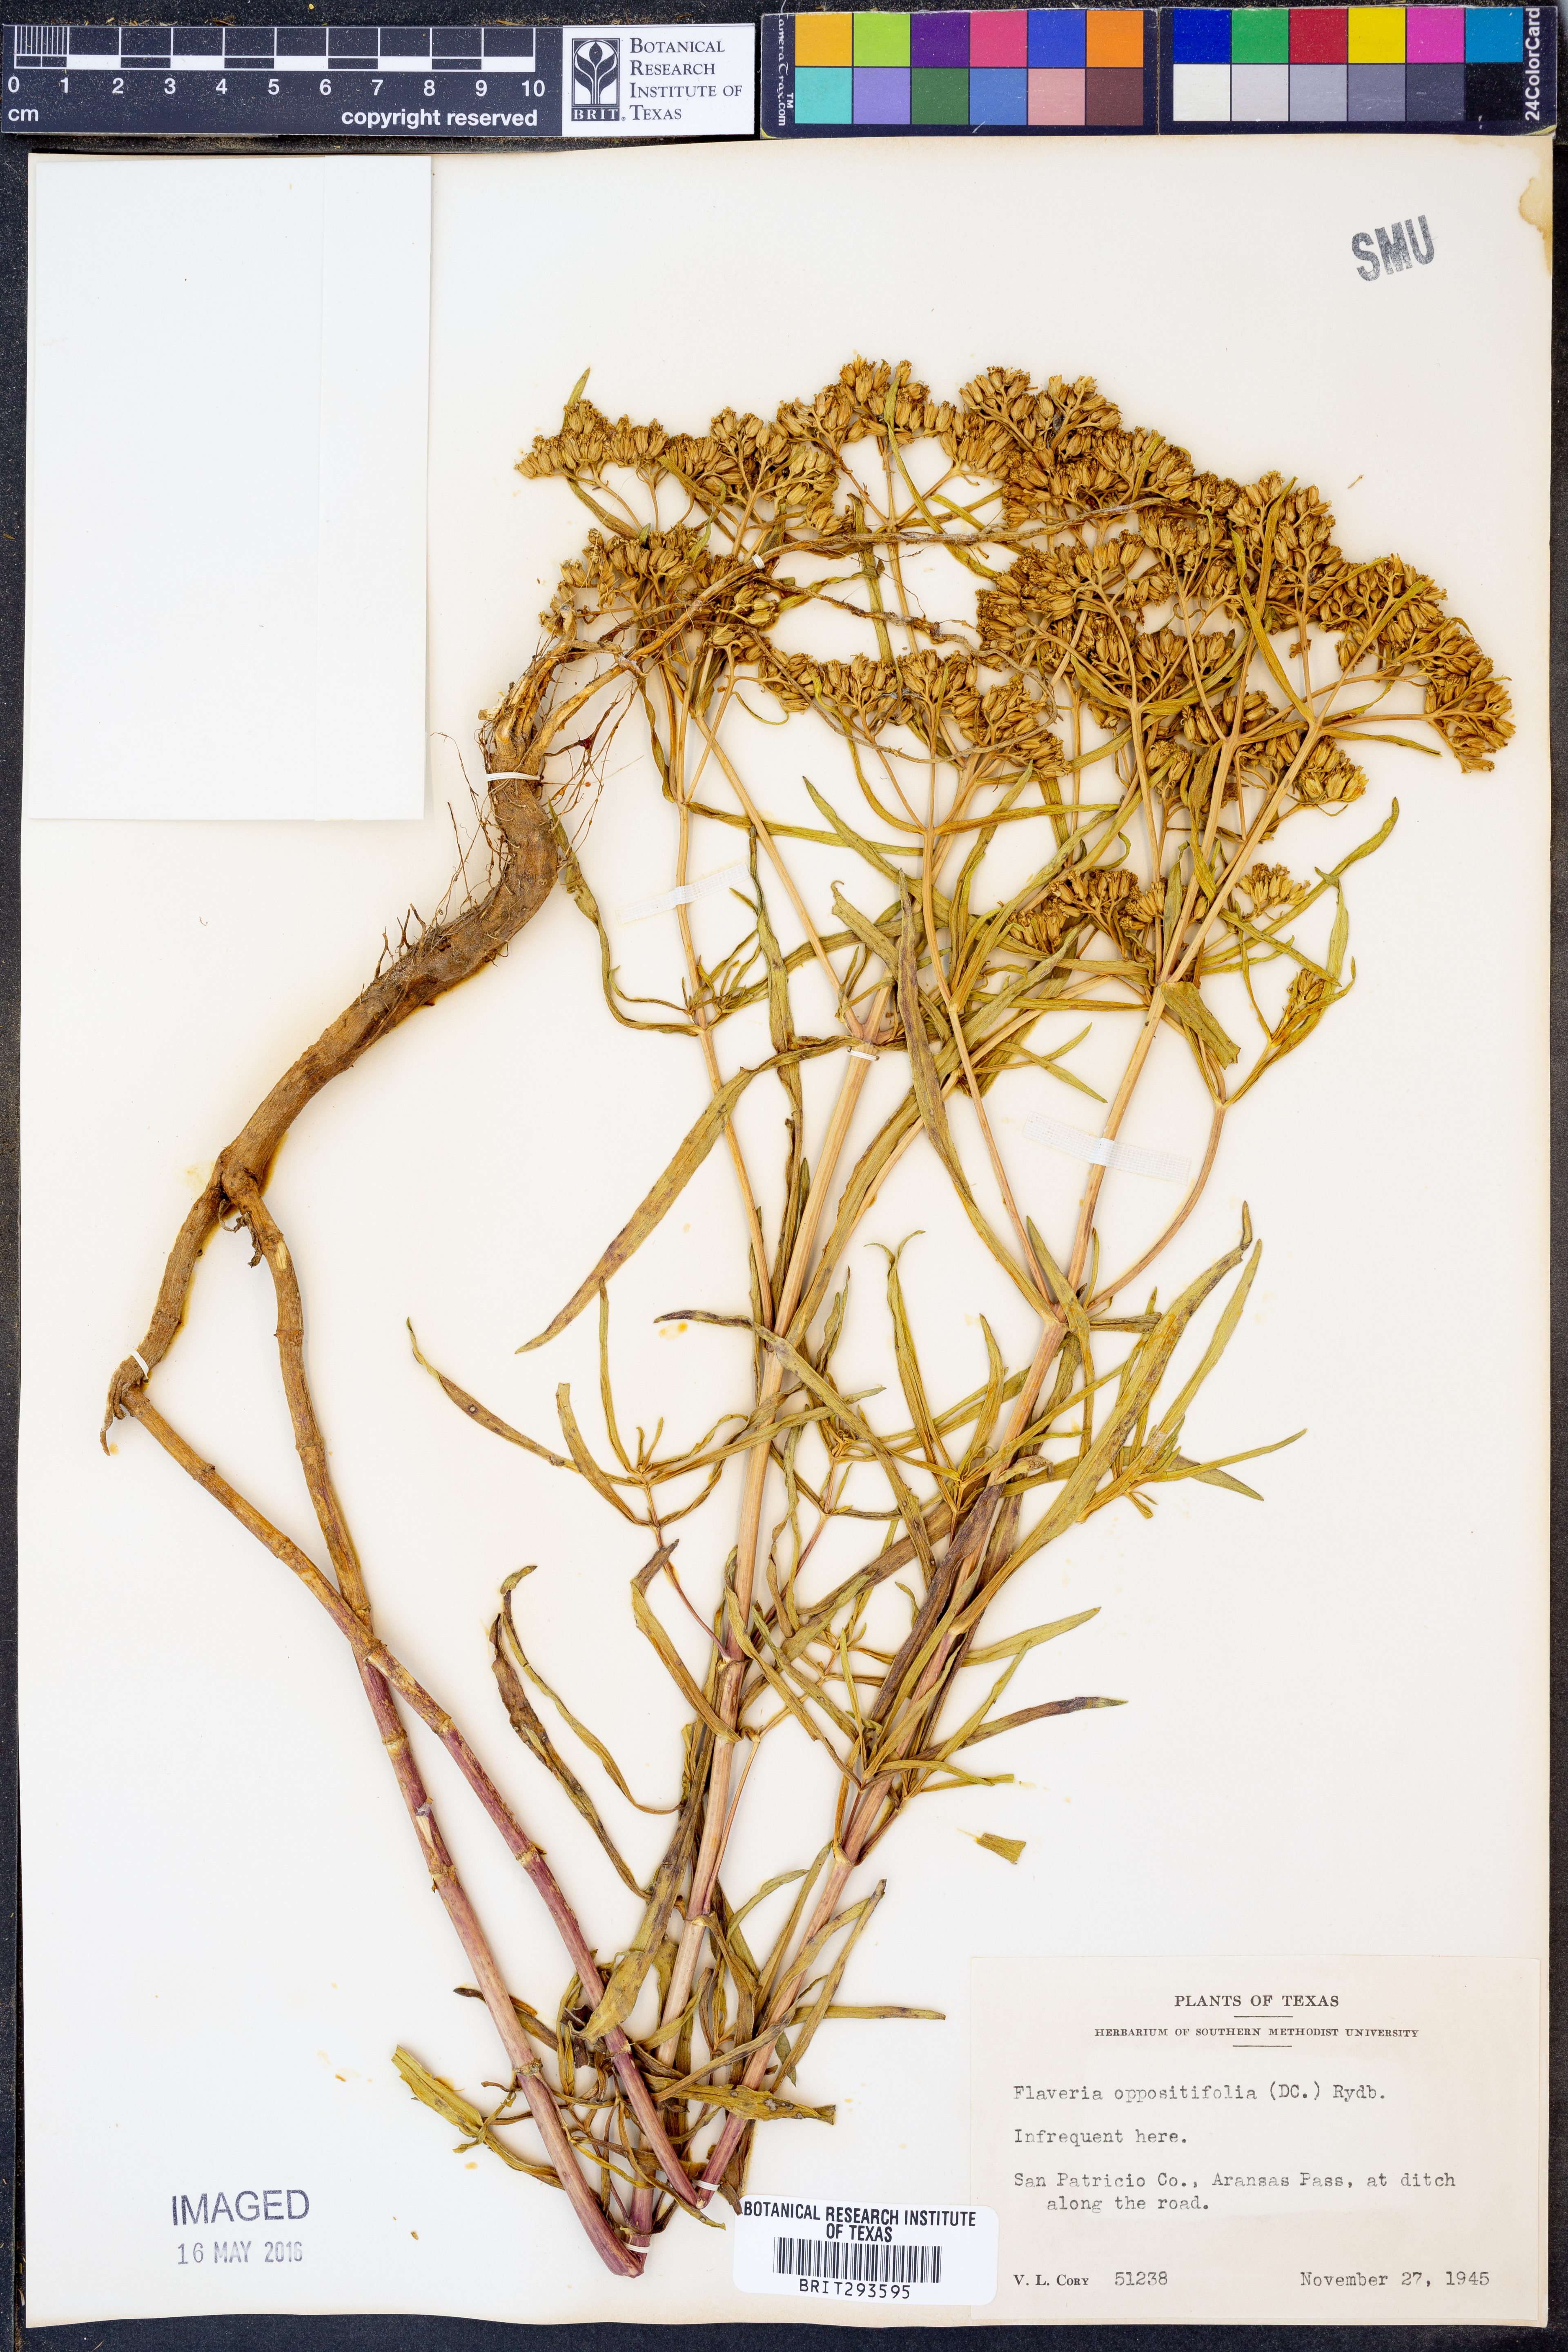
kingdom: Plantae
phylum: Tracheophyta
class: Magnoliopsida
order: Asterales
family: Asteraceae
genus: Flaveria
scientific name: Flaveria oppositifolia
